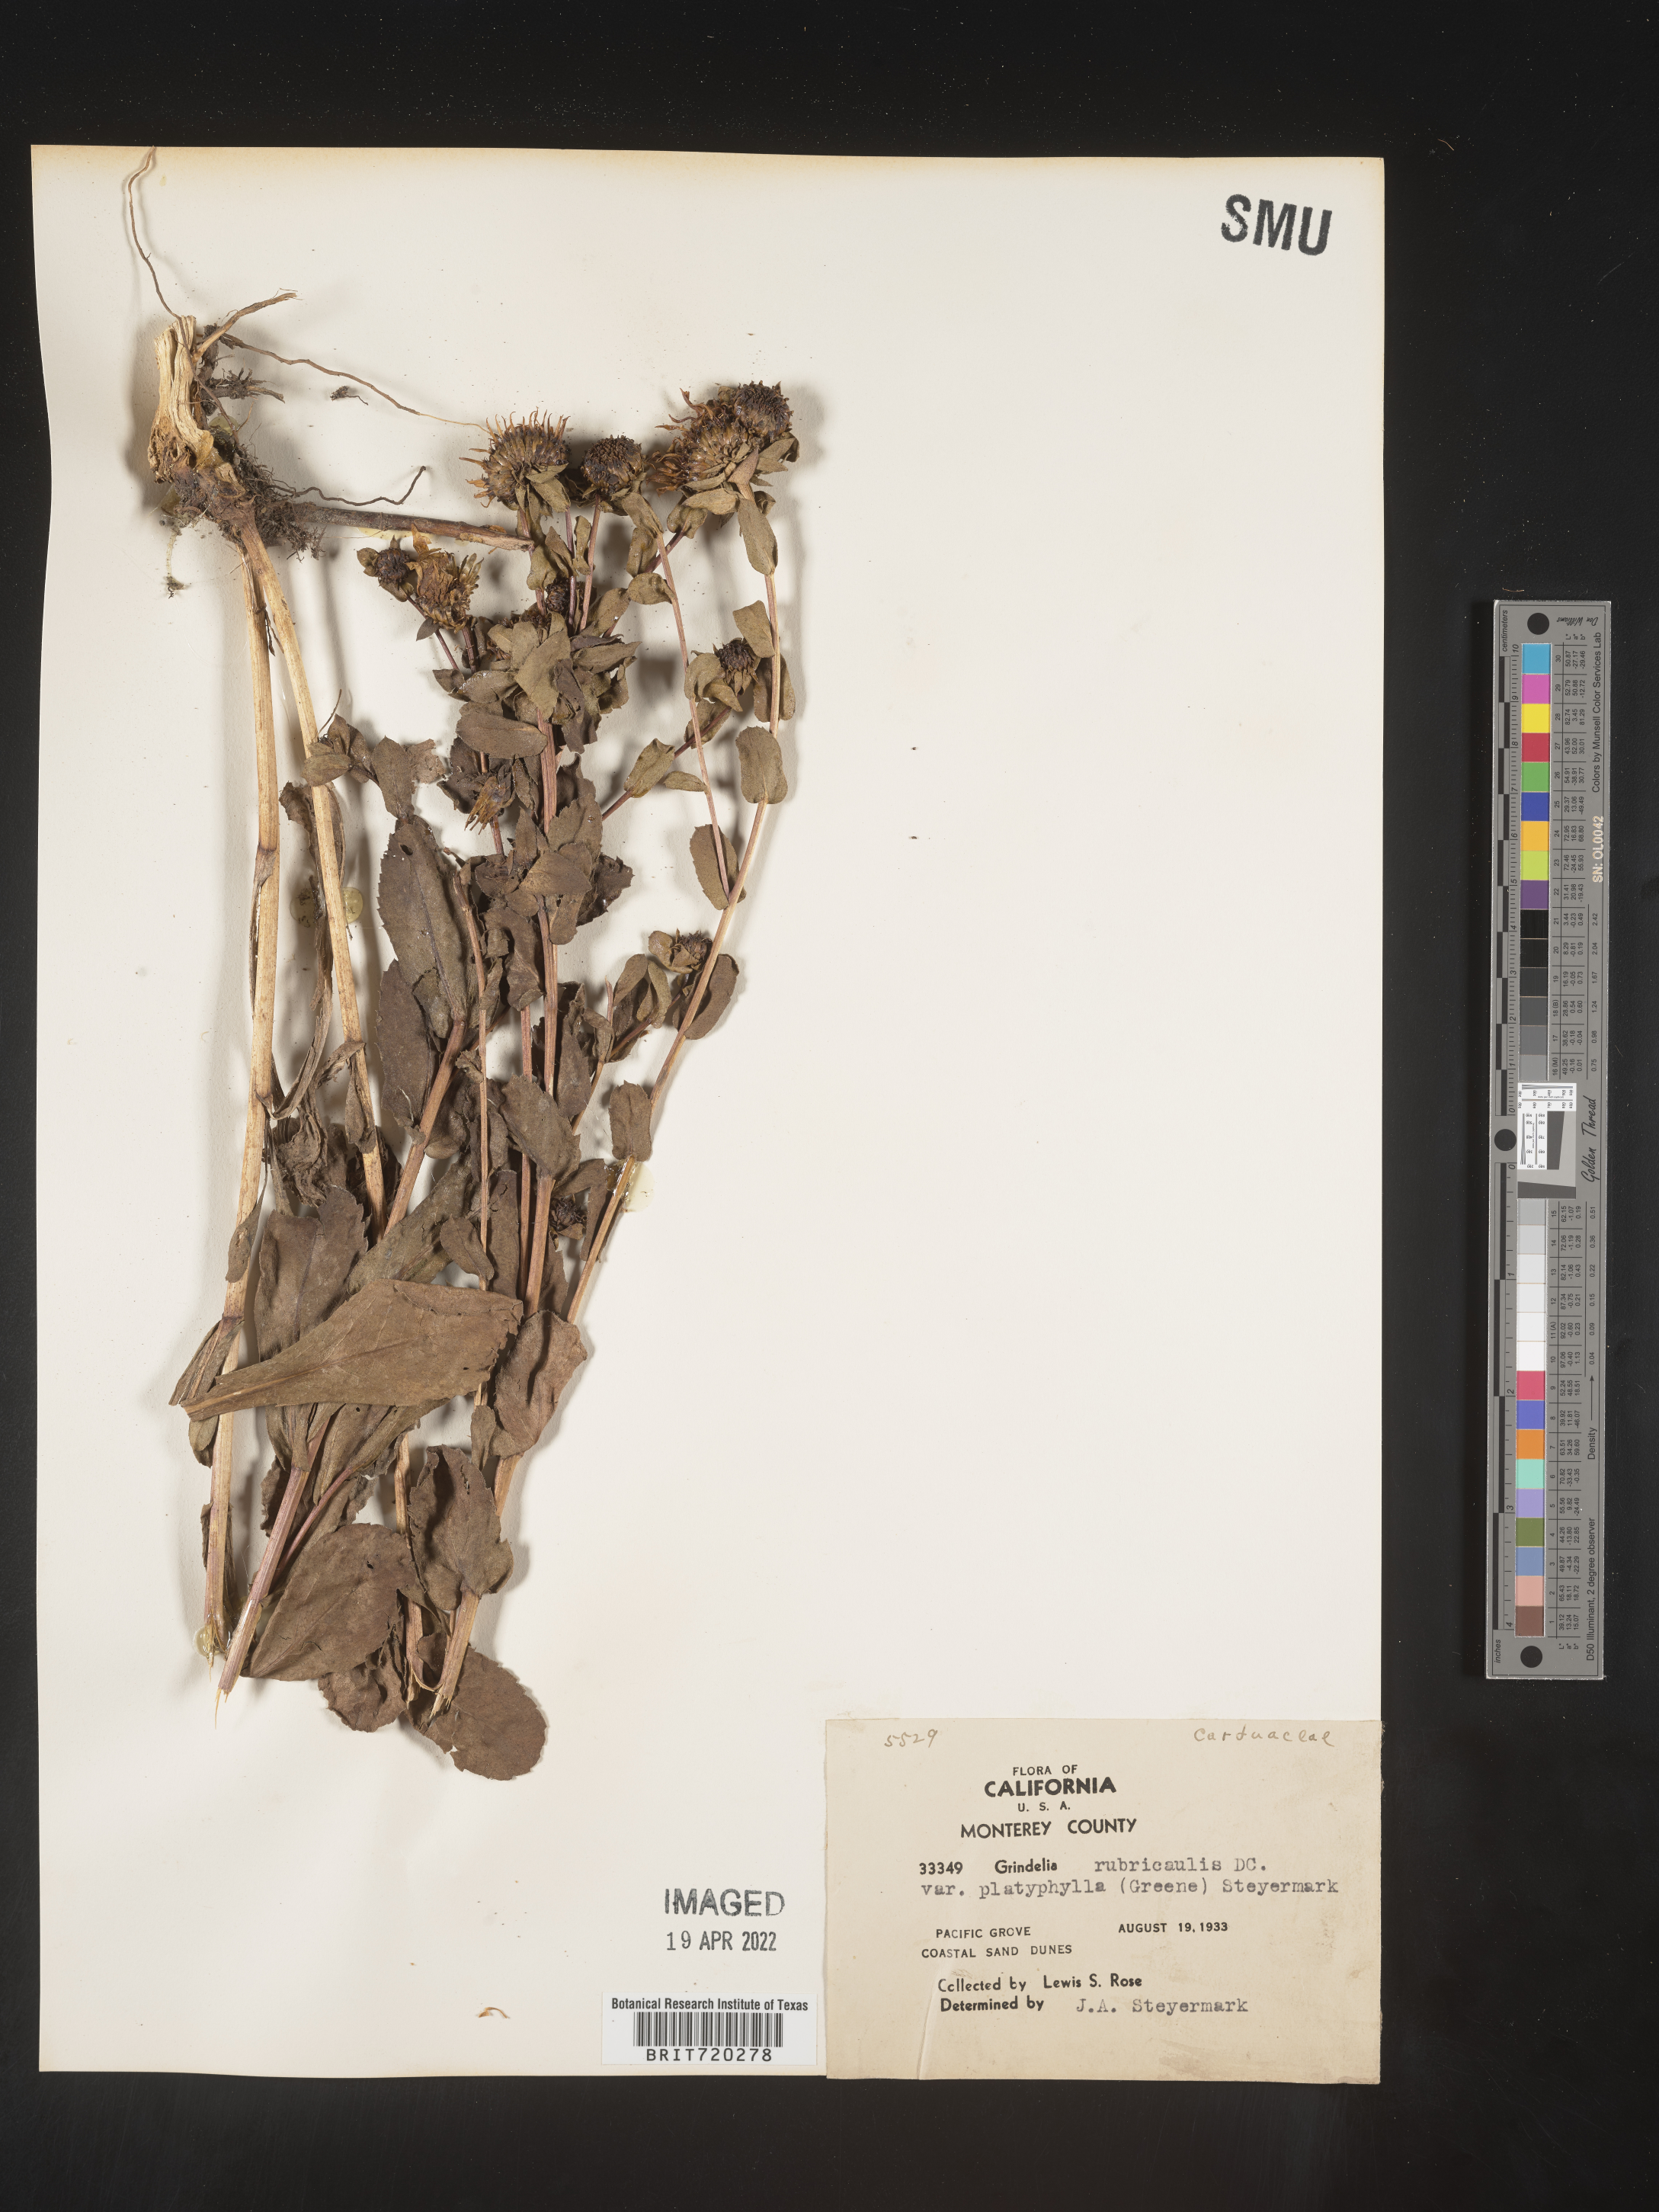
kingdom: Plantae
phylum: Tracheophyta
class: Magnoliopsida
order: Asterales
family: Asteraceae
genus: Grindelia
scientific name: Grindelia
